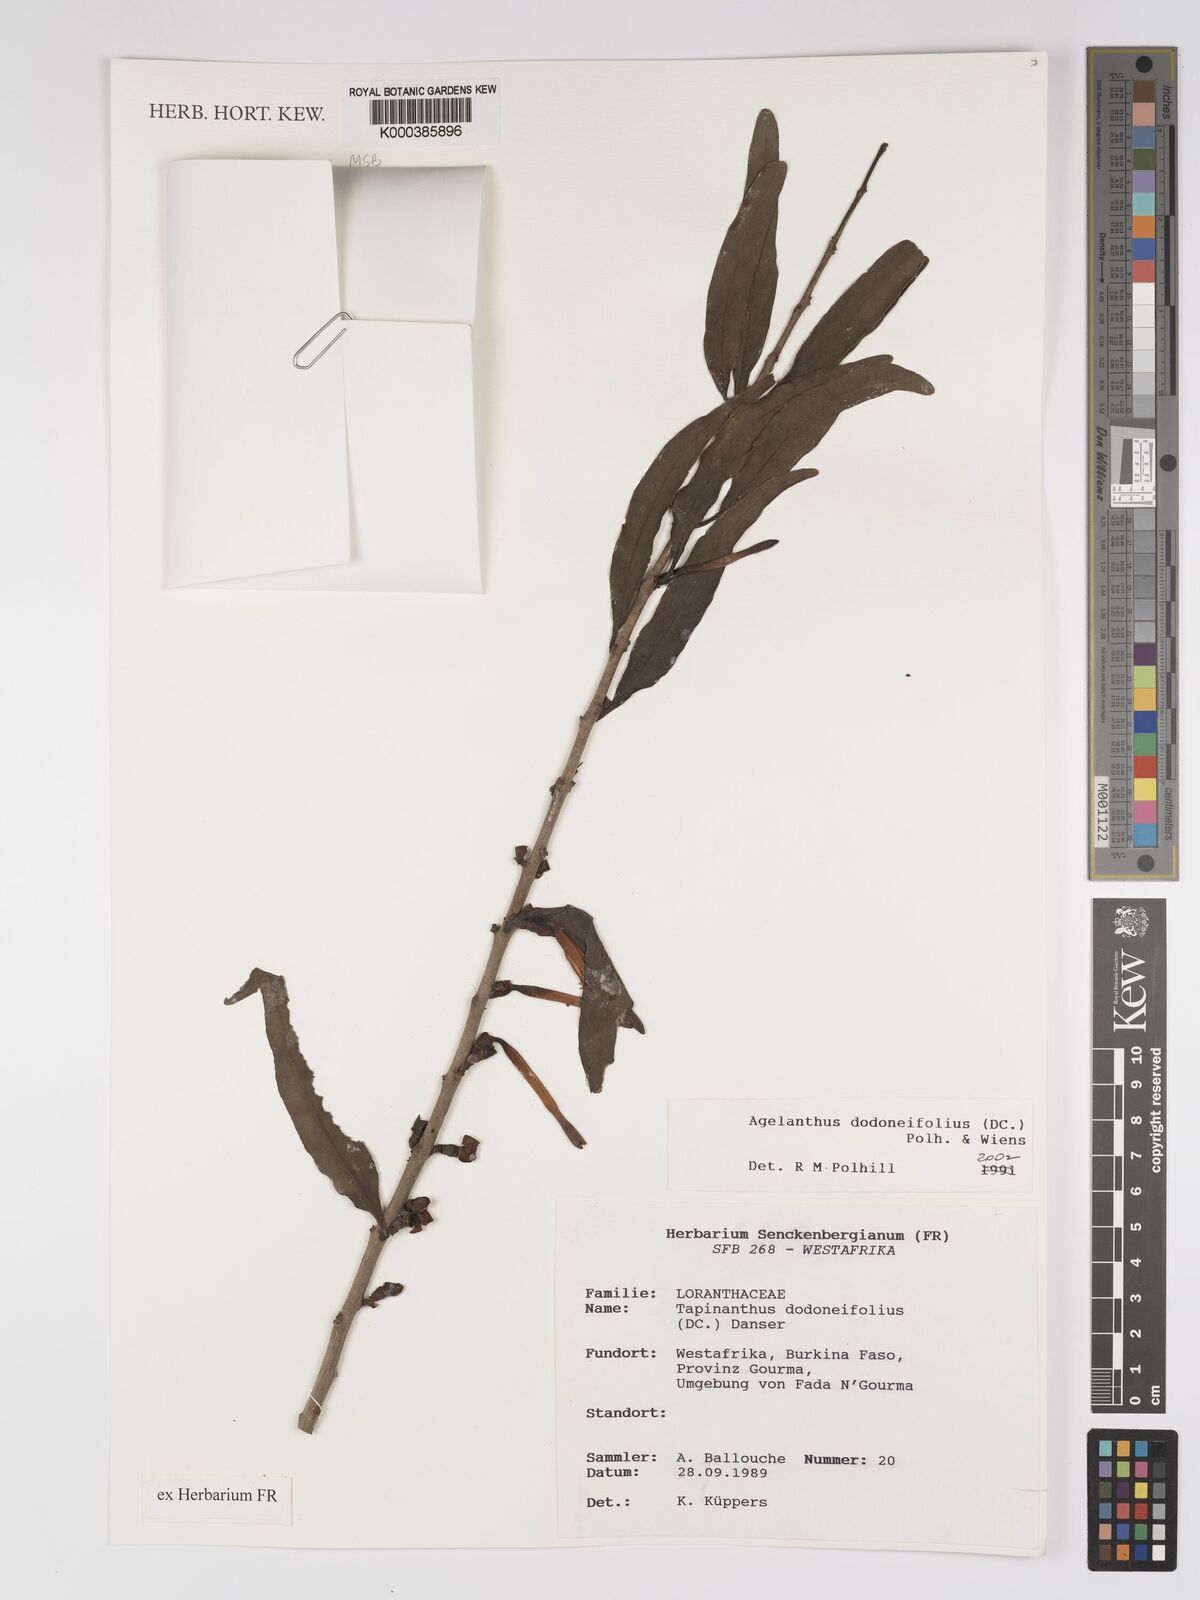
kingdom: Plantae
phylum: Tracheophyta
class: Magnoliopsida
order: Santalales
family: Loranthaceae
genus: Agelanthus
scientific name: Agelanthus dodoneifolius
